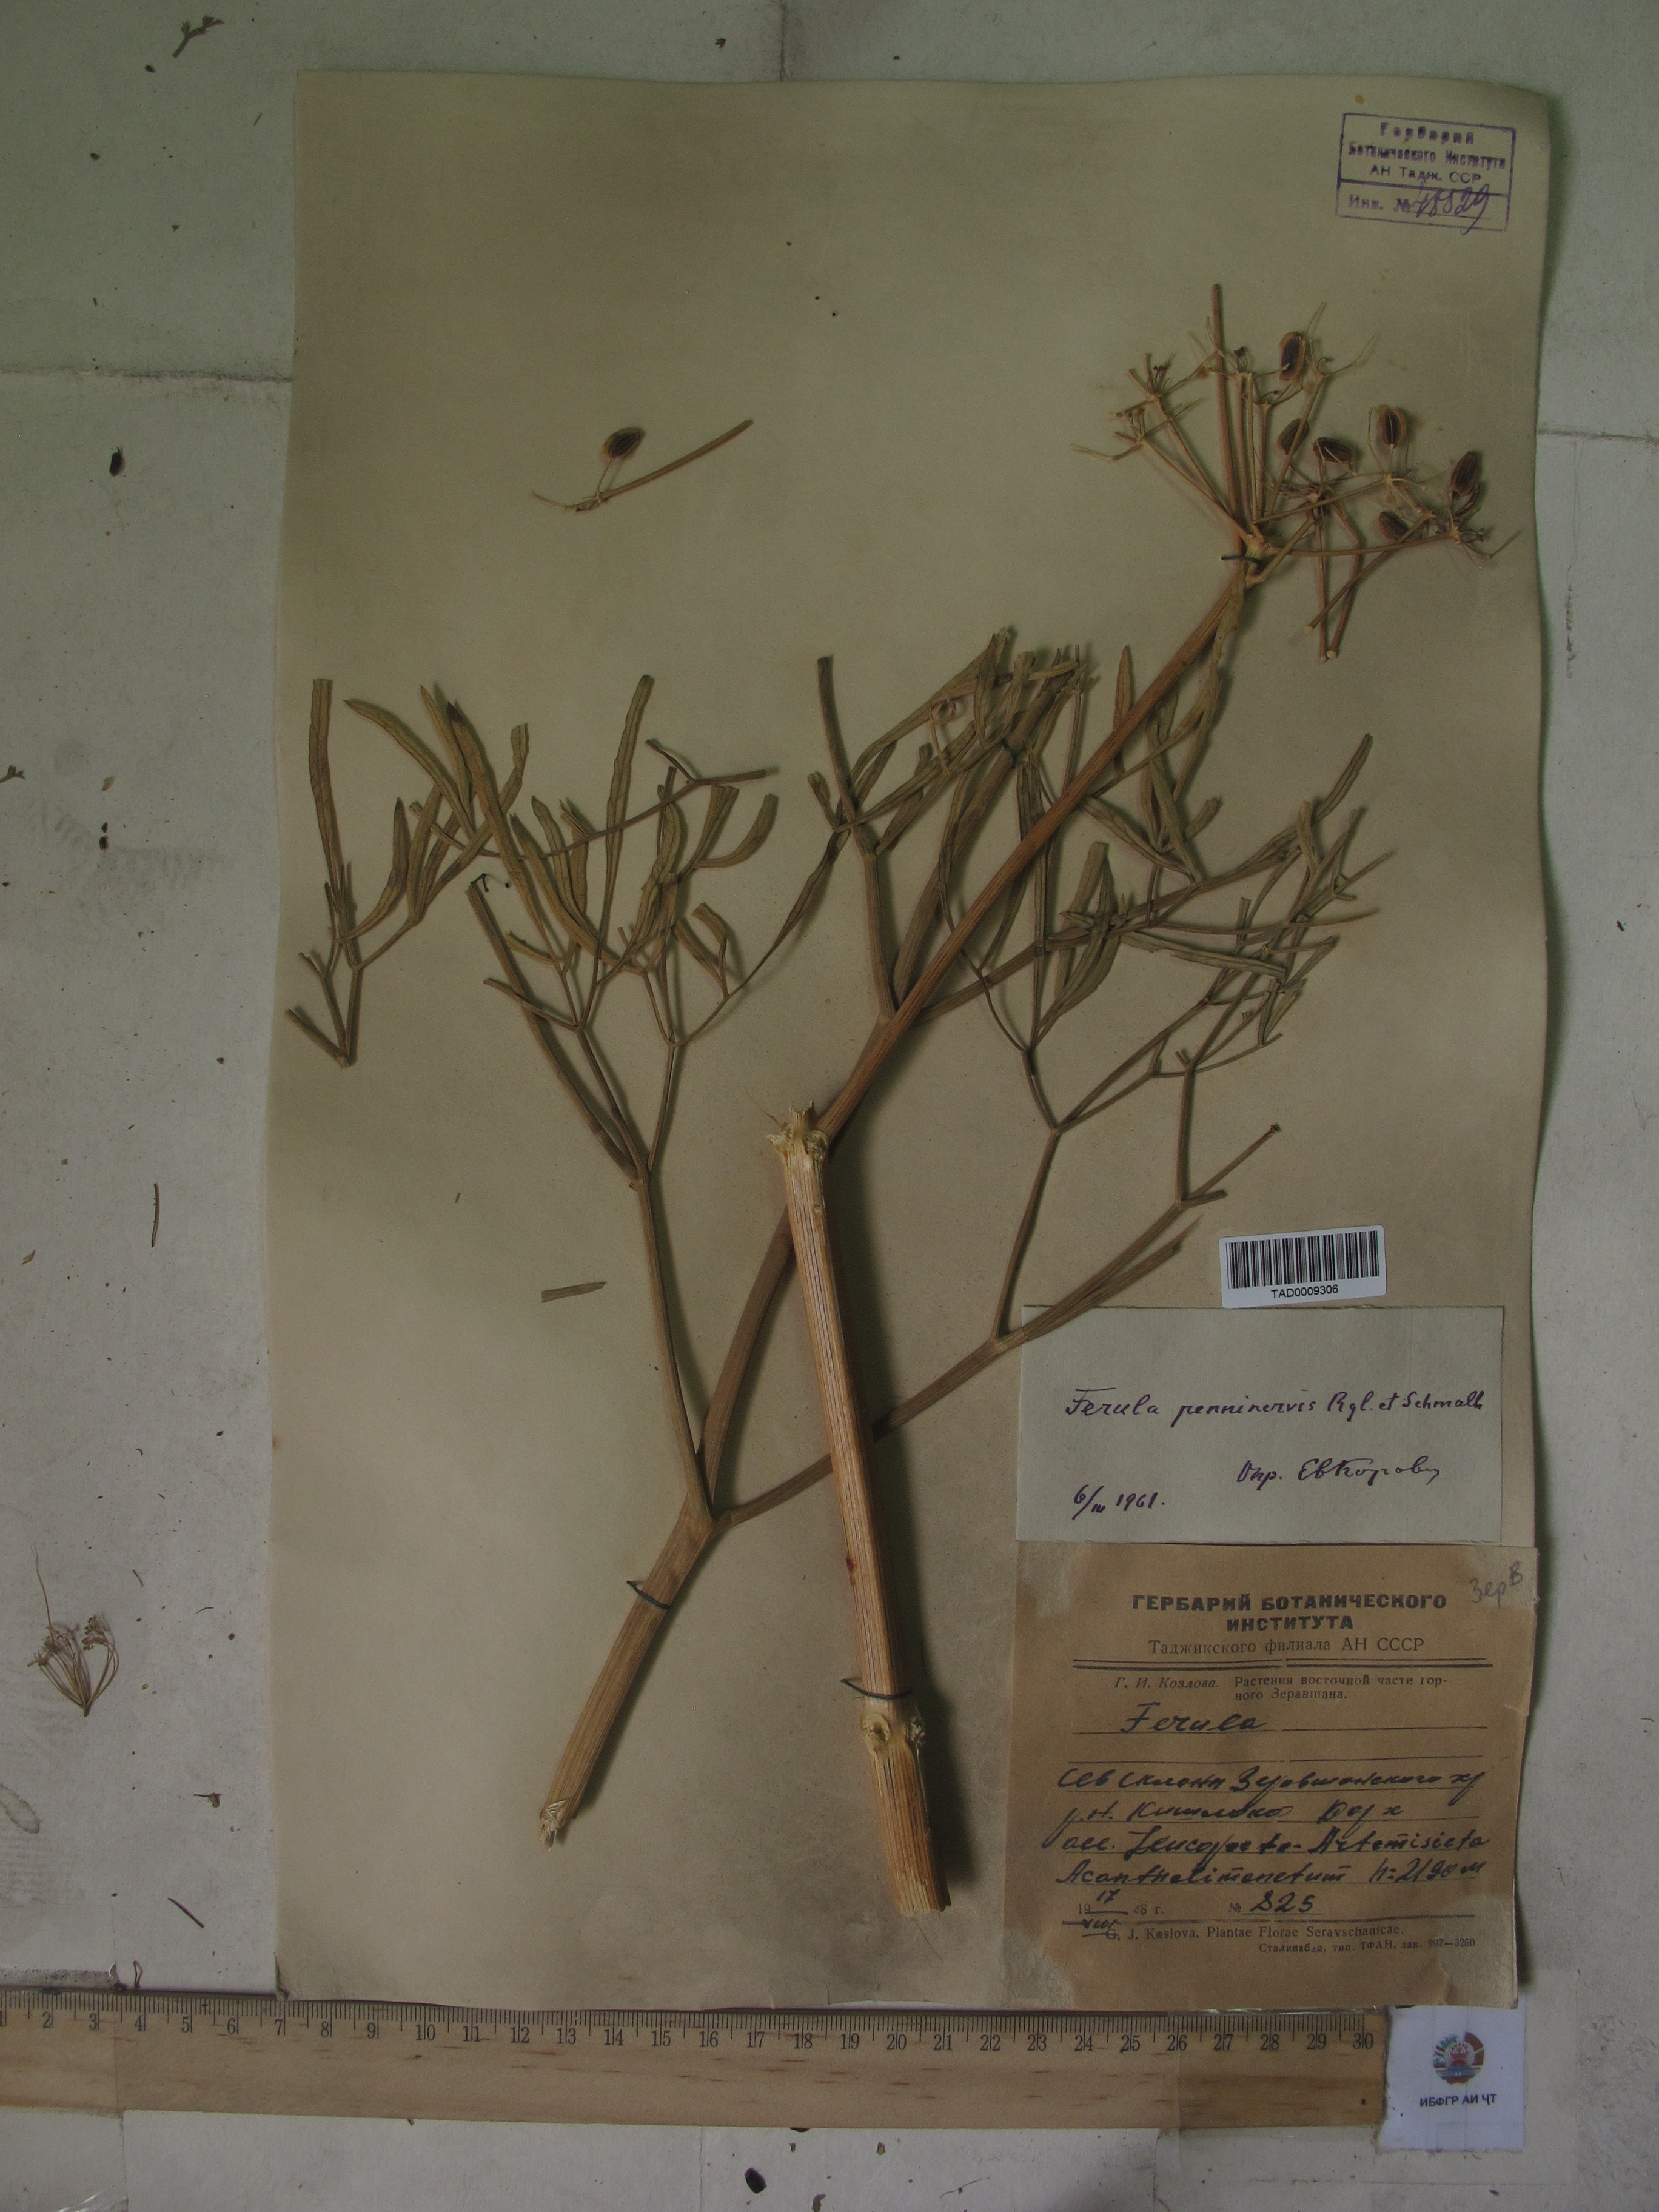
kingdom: Plantae
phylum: Tracheophyta
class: Magnoliopsida
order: Apiales
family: Apiaceae
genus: Ferula
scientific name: Ferula penninervis
